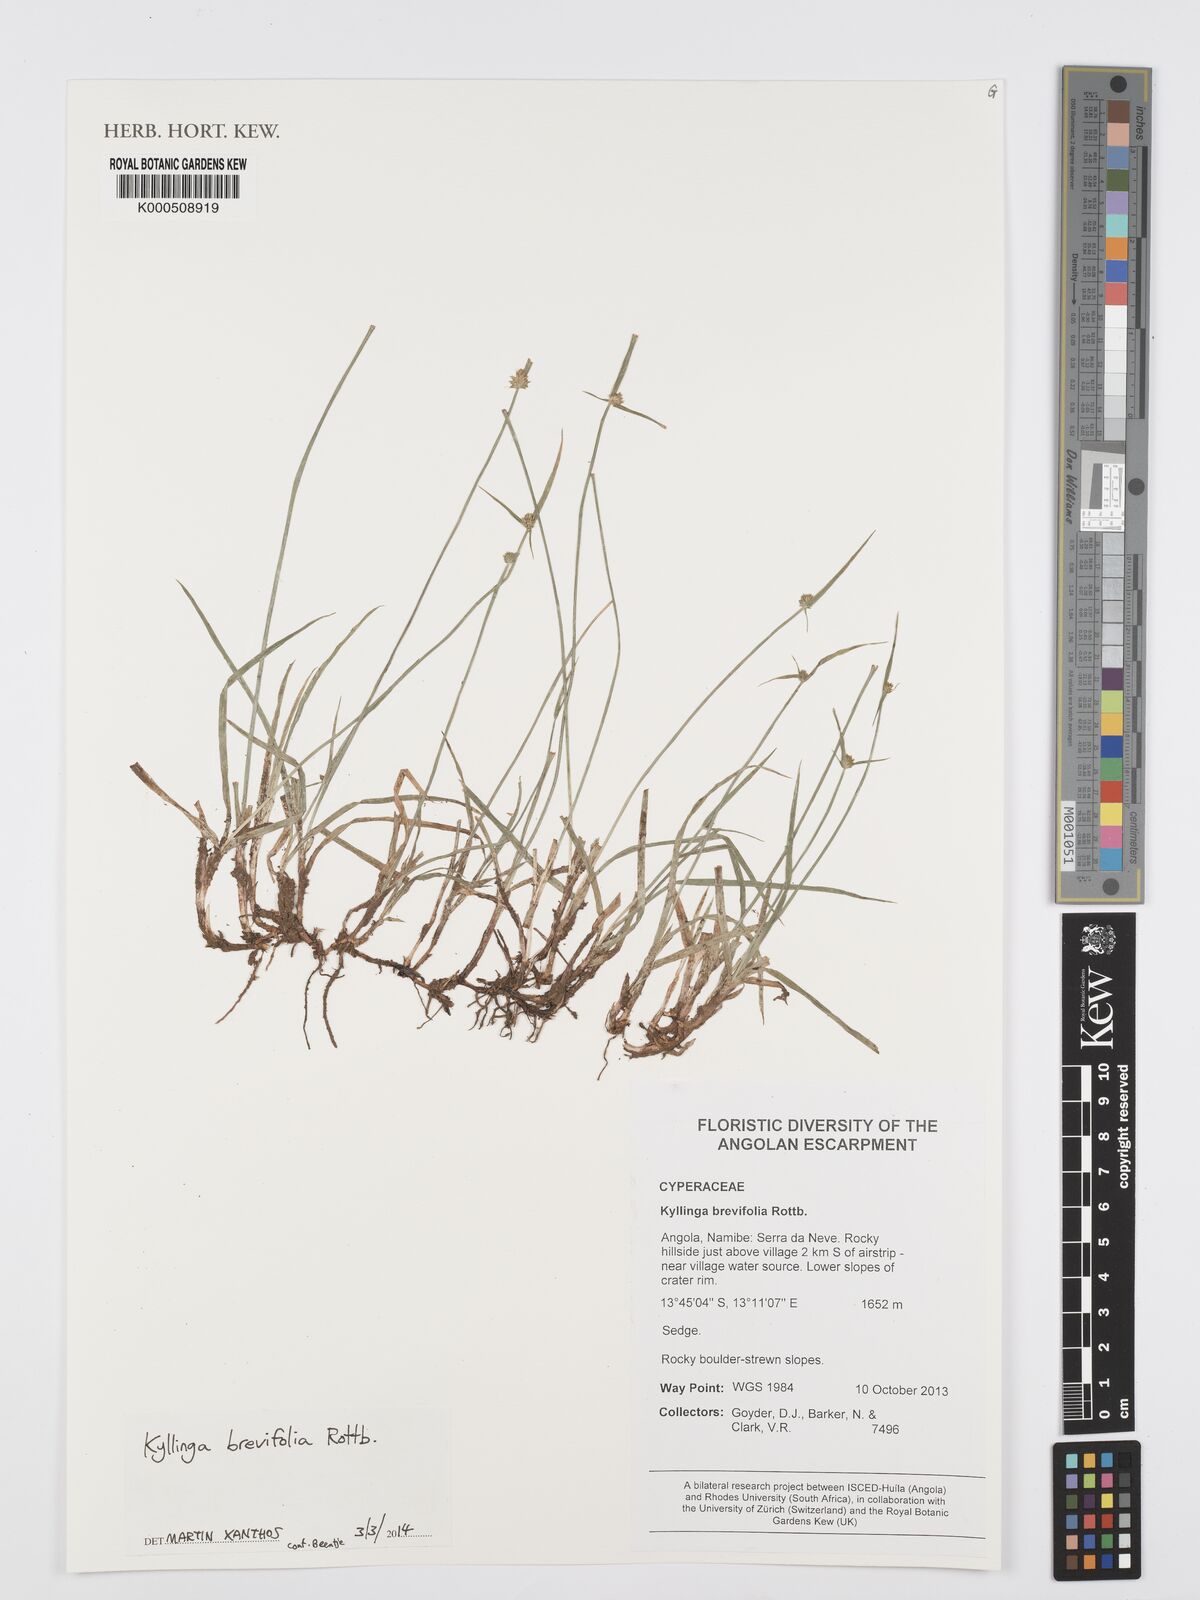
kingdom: Plantae
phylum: Tracheophyta
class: Liliopsida
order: Poales
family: Cyperaceae
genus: Cyperus
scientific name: Cyperus brevifolius
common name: Globe kyllinga
